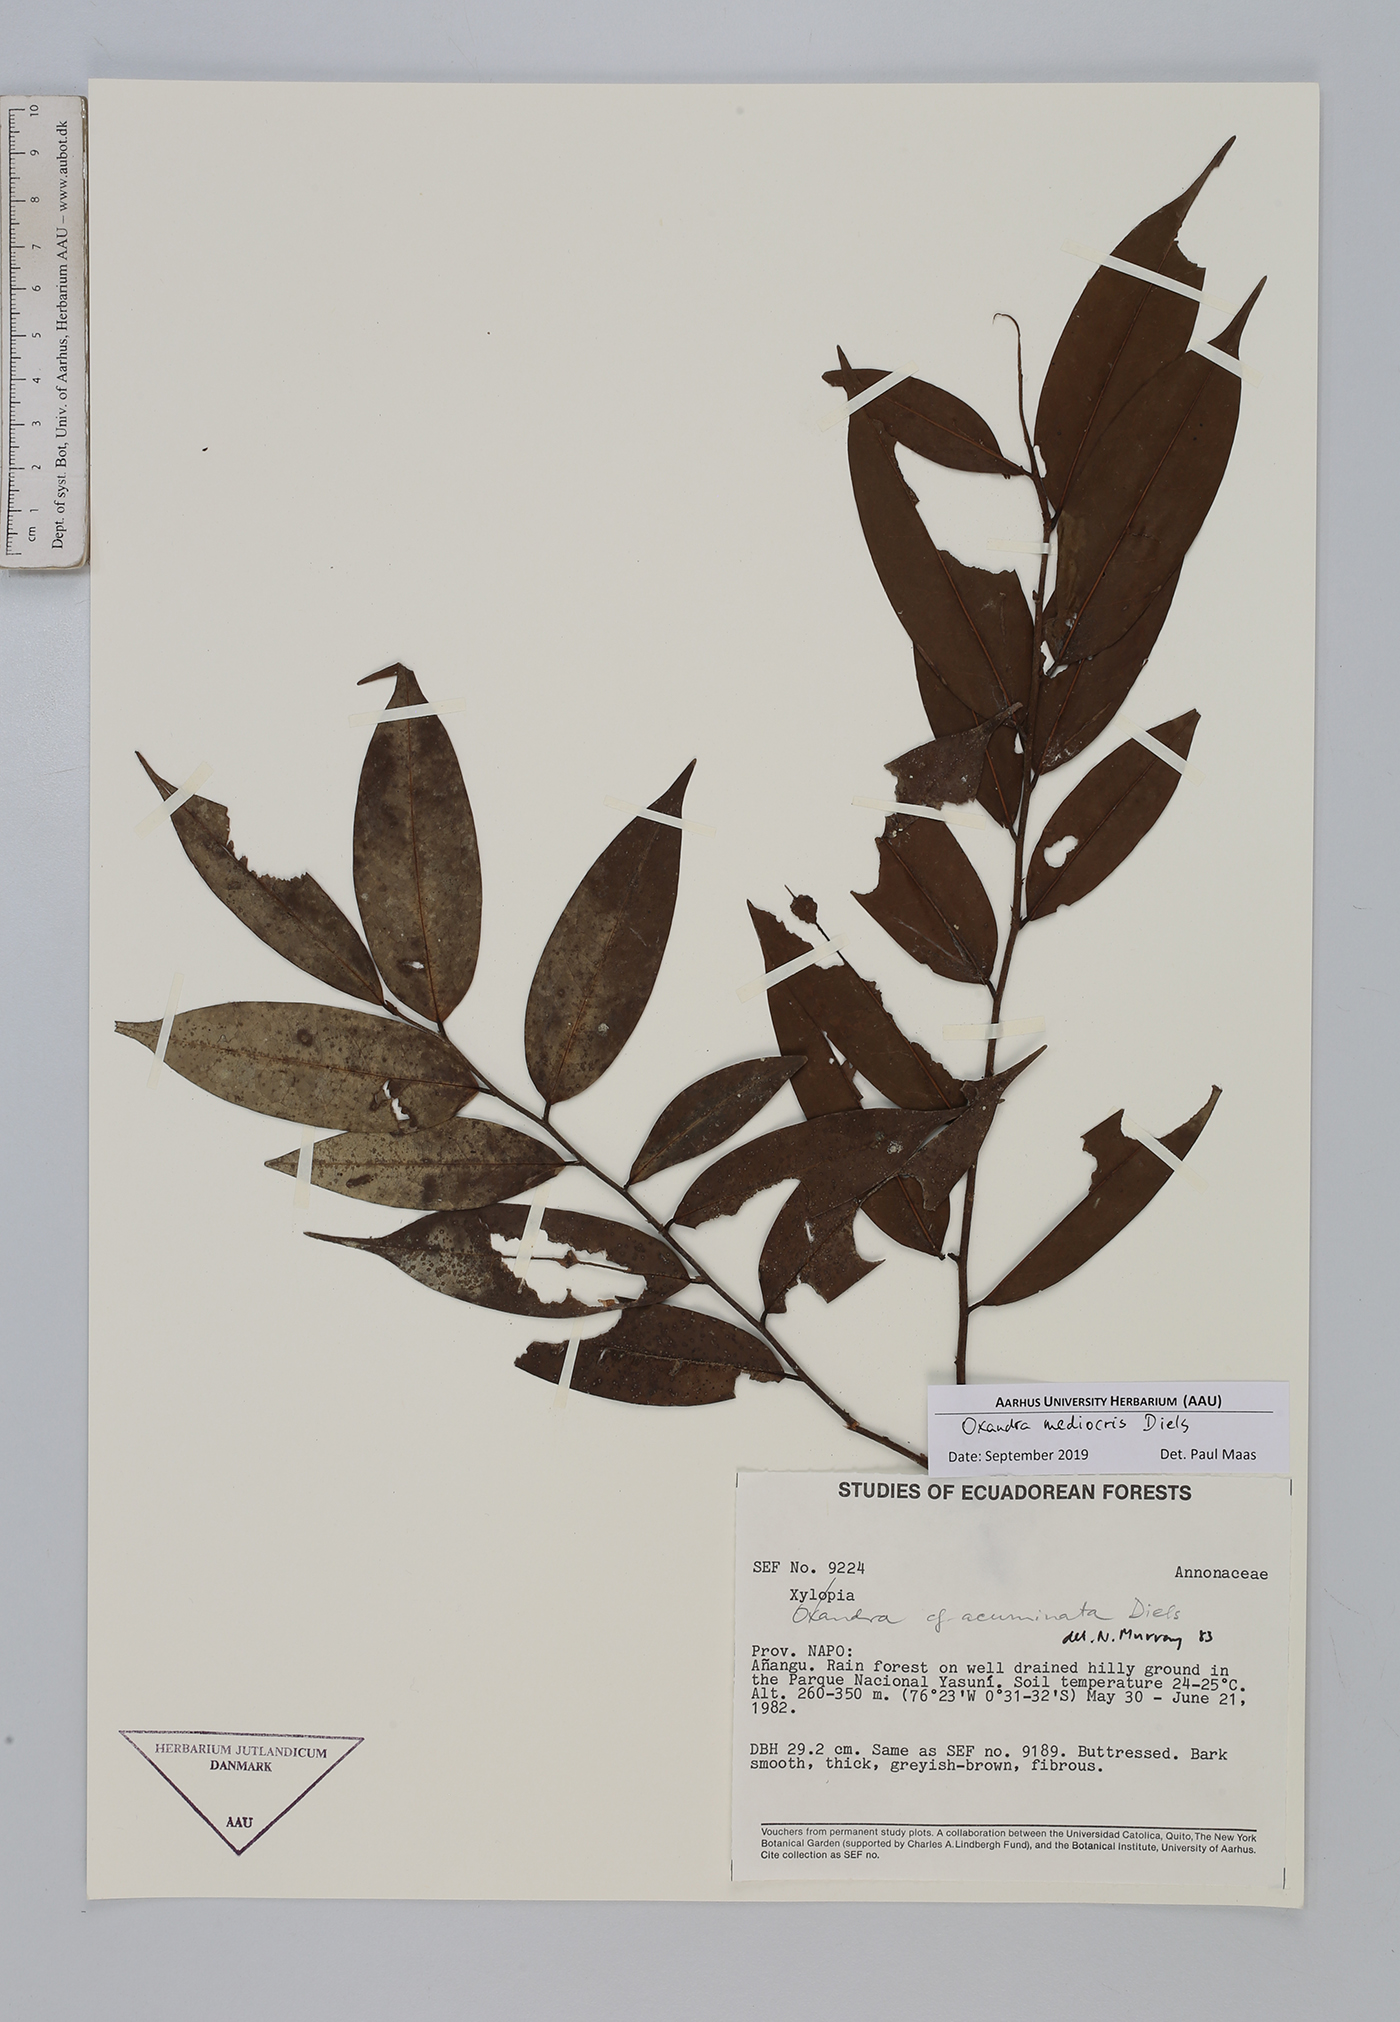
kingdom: Plantae
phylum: Tracheophyta
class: Magnoliopsida
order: Magnoliales
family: Annonaceae
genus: Xylopia
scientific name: Xylopia polyantha
